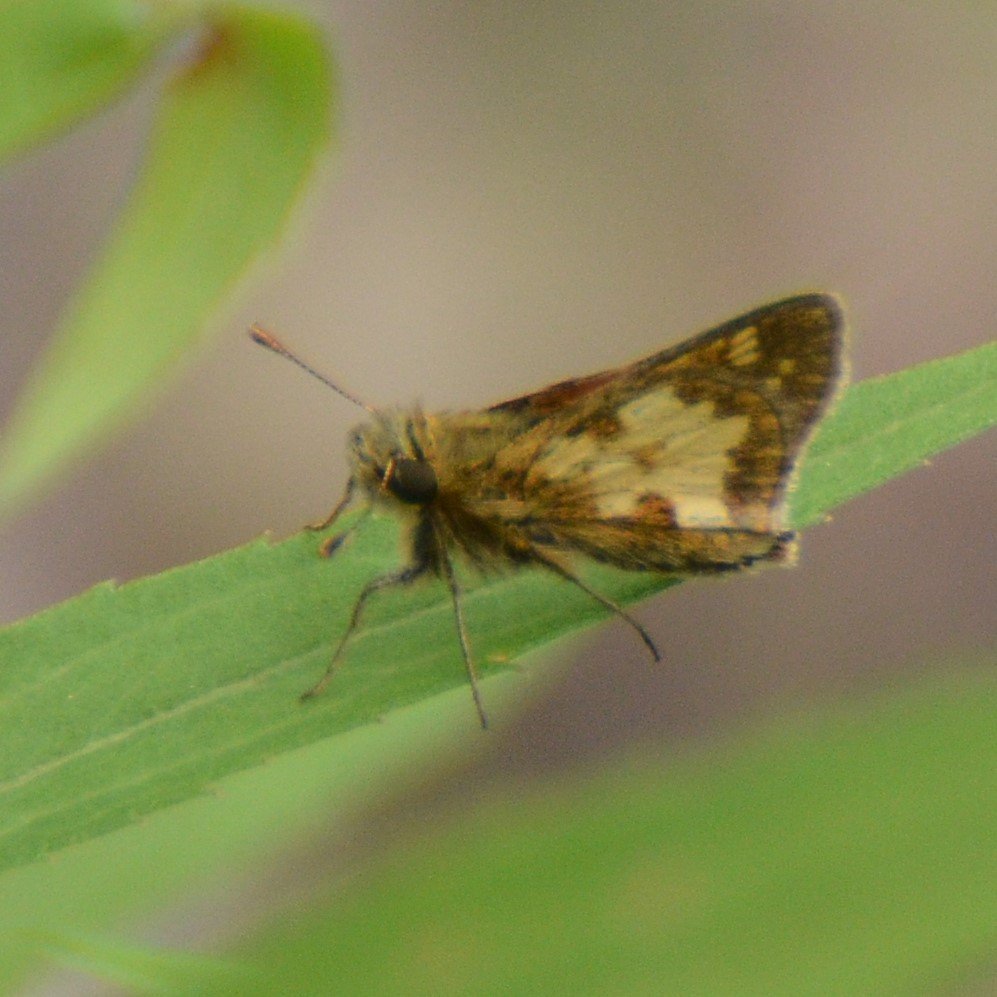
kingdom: Animalia
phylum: Arthropoda
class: Insecta
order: Lepidoptera
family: Hesperiidae
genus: Polites
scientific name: Polites coras
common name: Peck's Skipper
